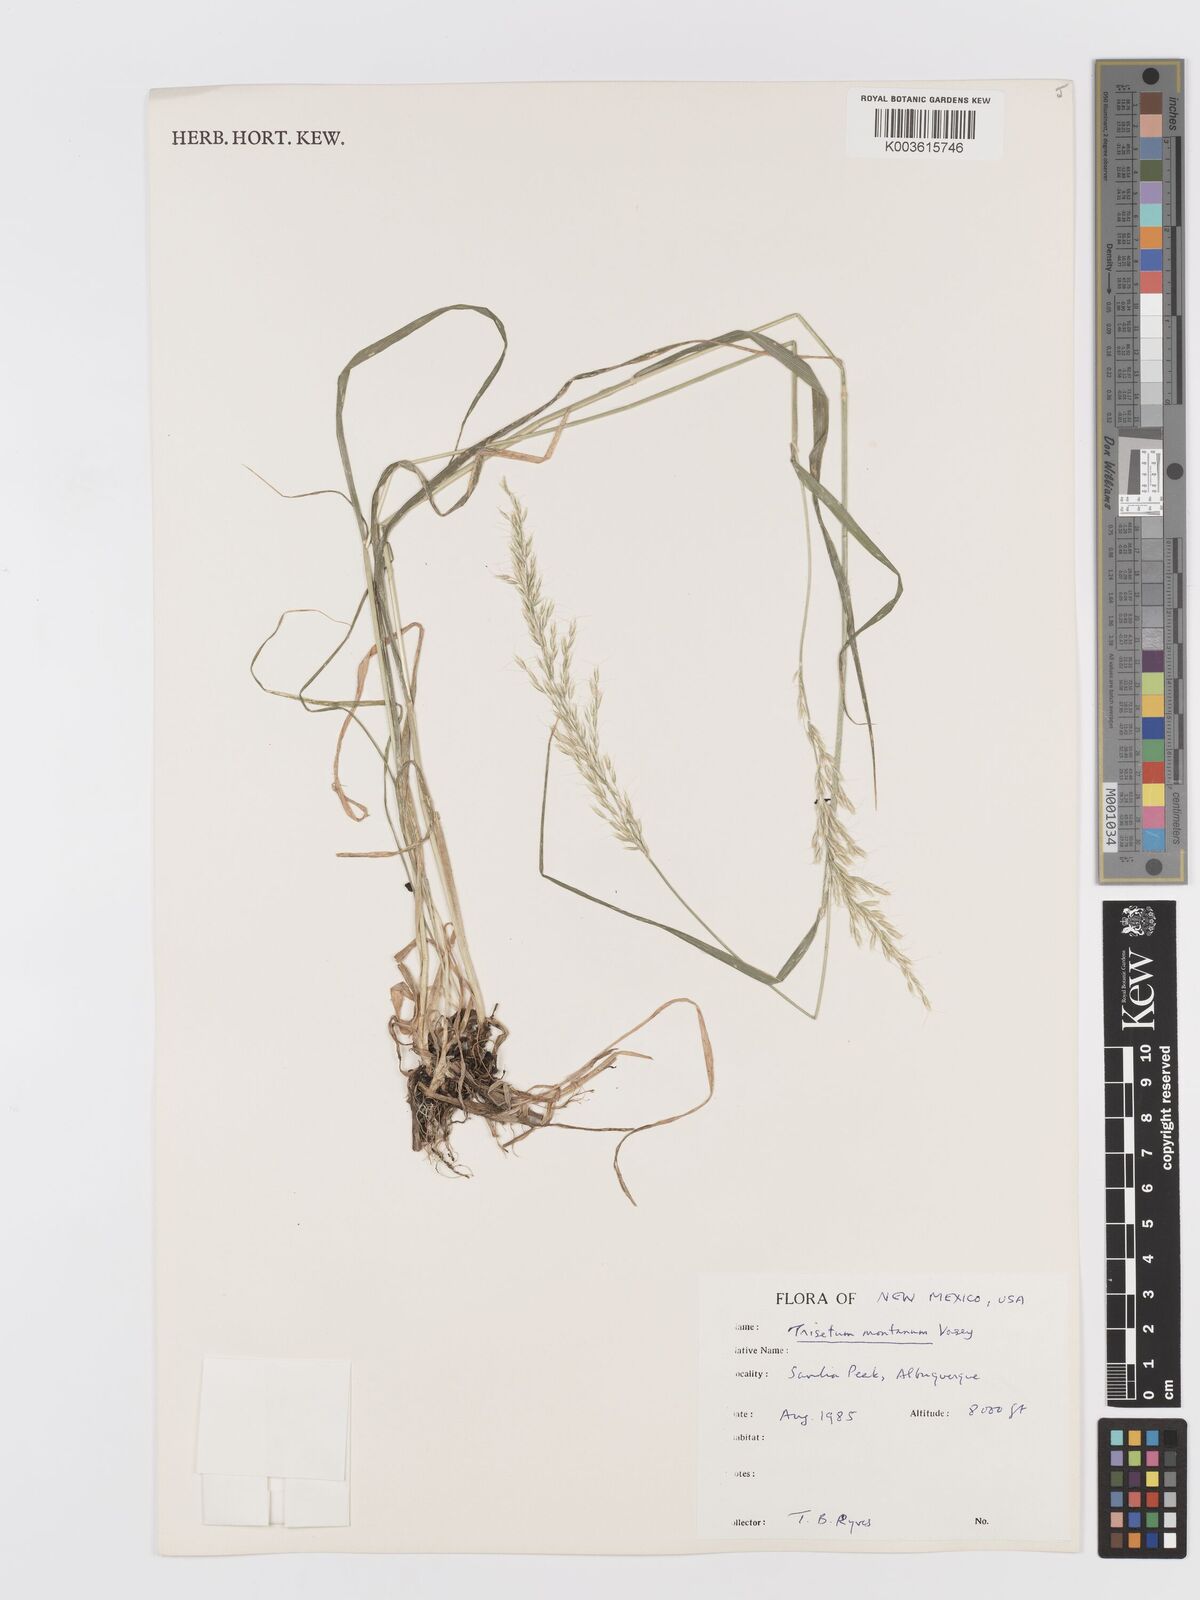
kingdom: Plantae
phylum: Tracheophyta
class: Liliopsida
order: Poales
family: Poaceae
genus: Koeleria
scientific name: Koeleria vaseyi
